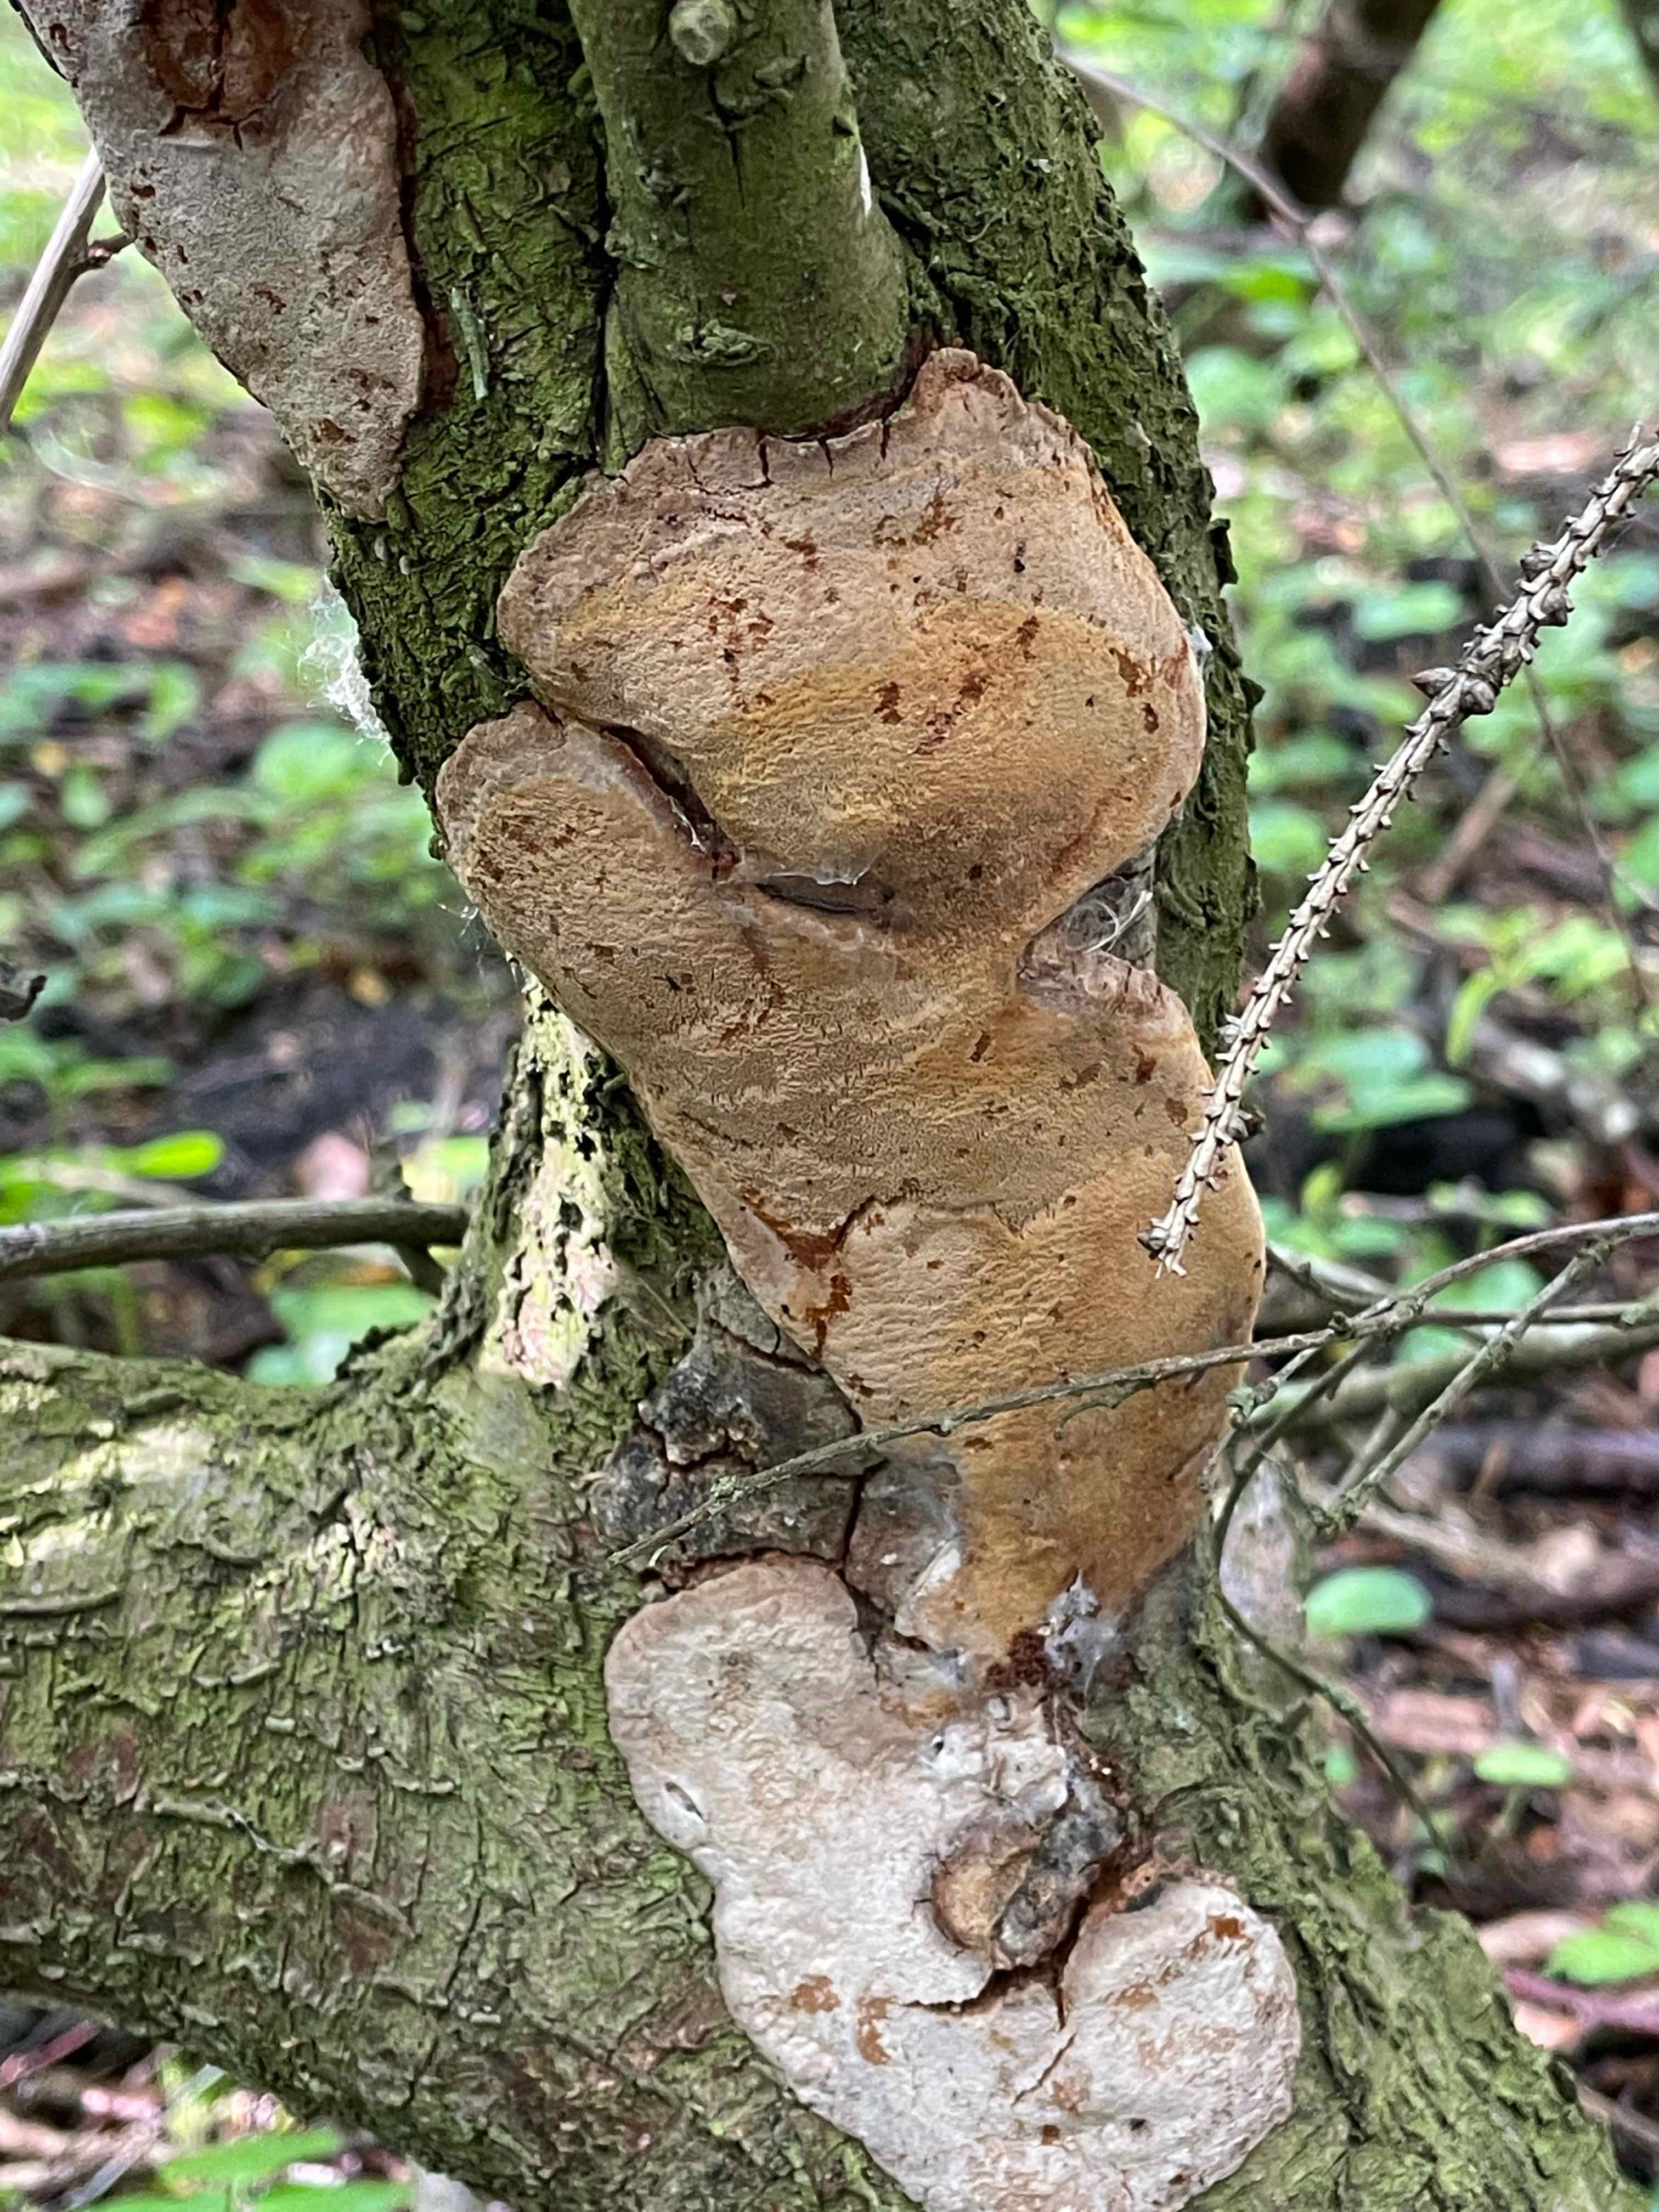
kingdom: Fungi
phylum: Basidiomycota
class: Agaricomycetes
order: Hymenochaetales
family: Hymenochaetaceae
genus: Phellinus
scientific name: Phellinus pomaceus
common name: blomme-ildporesvamp
